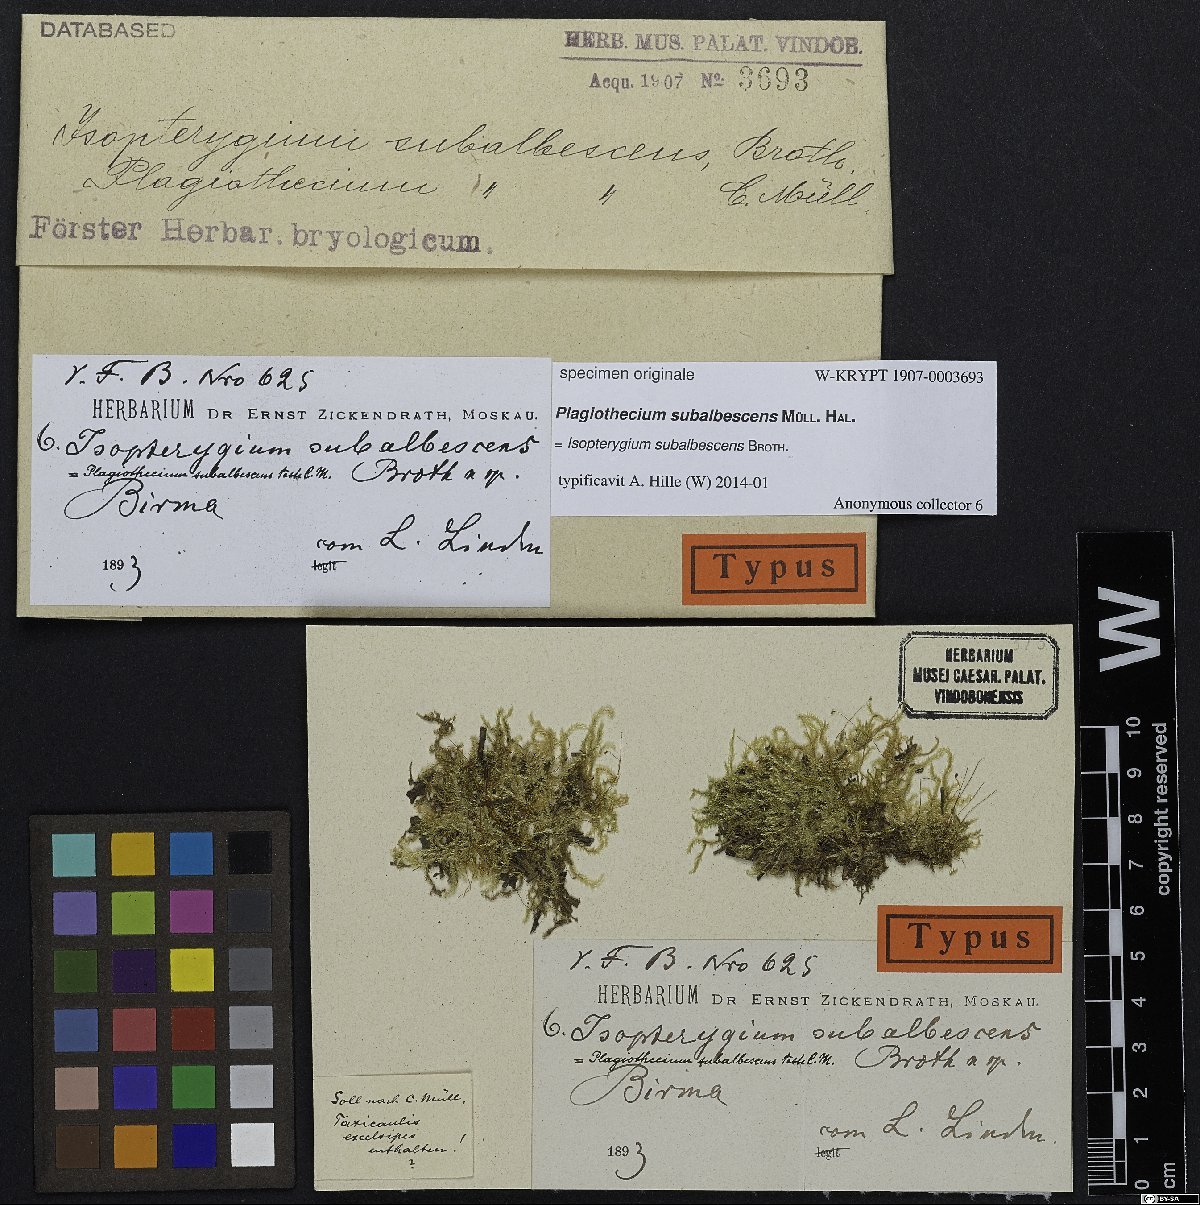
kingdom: Plantae
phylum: Bryophyta
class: Bryopsida
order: Hypnales
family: Plagiotheciaceae
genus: Plagiothecium
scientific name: Plagiothecium
